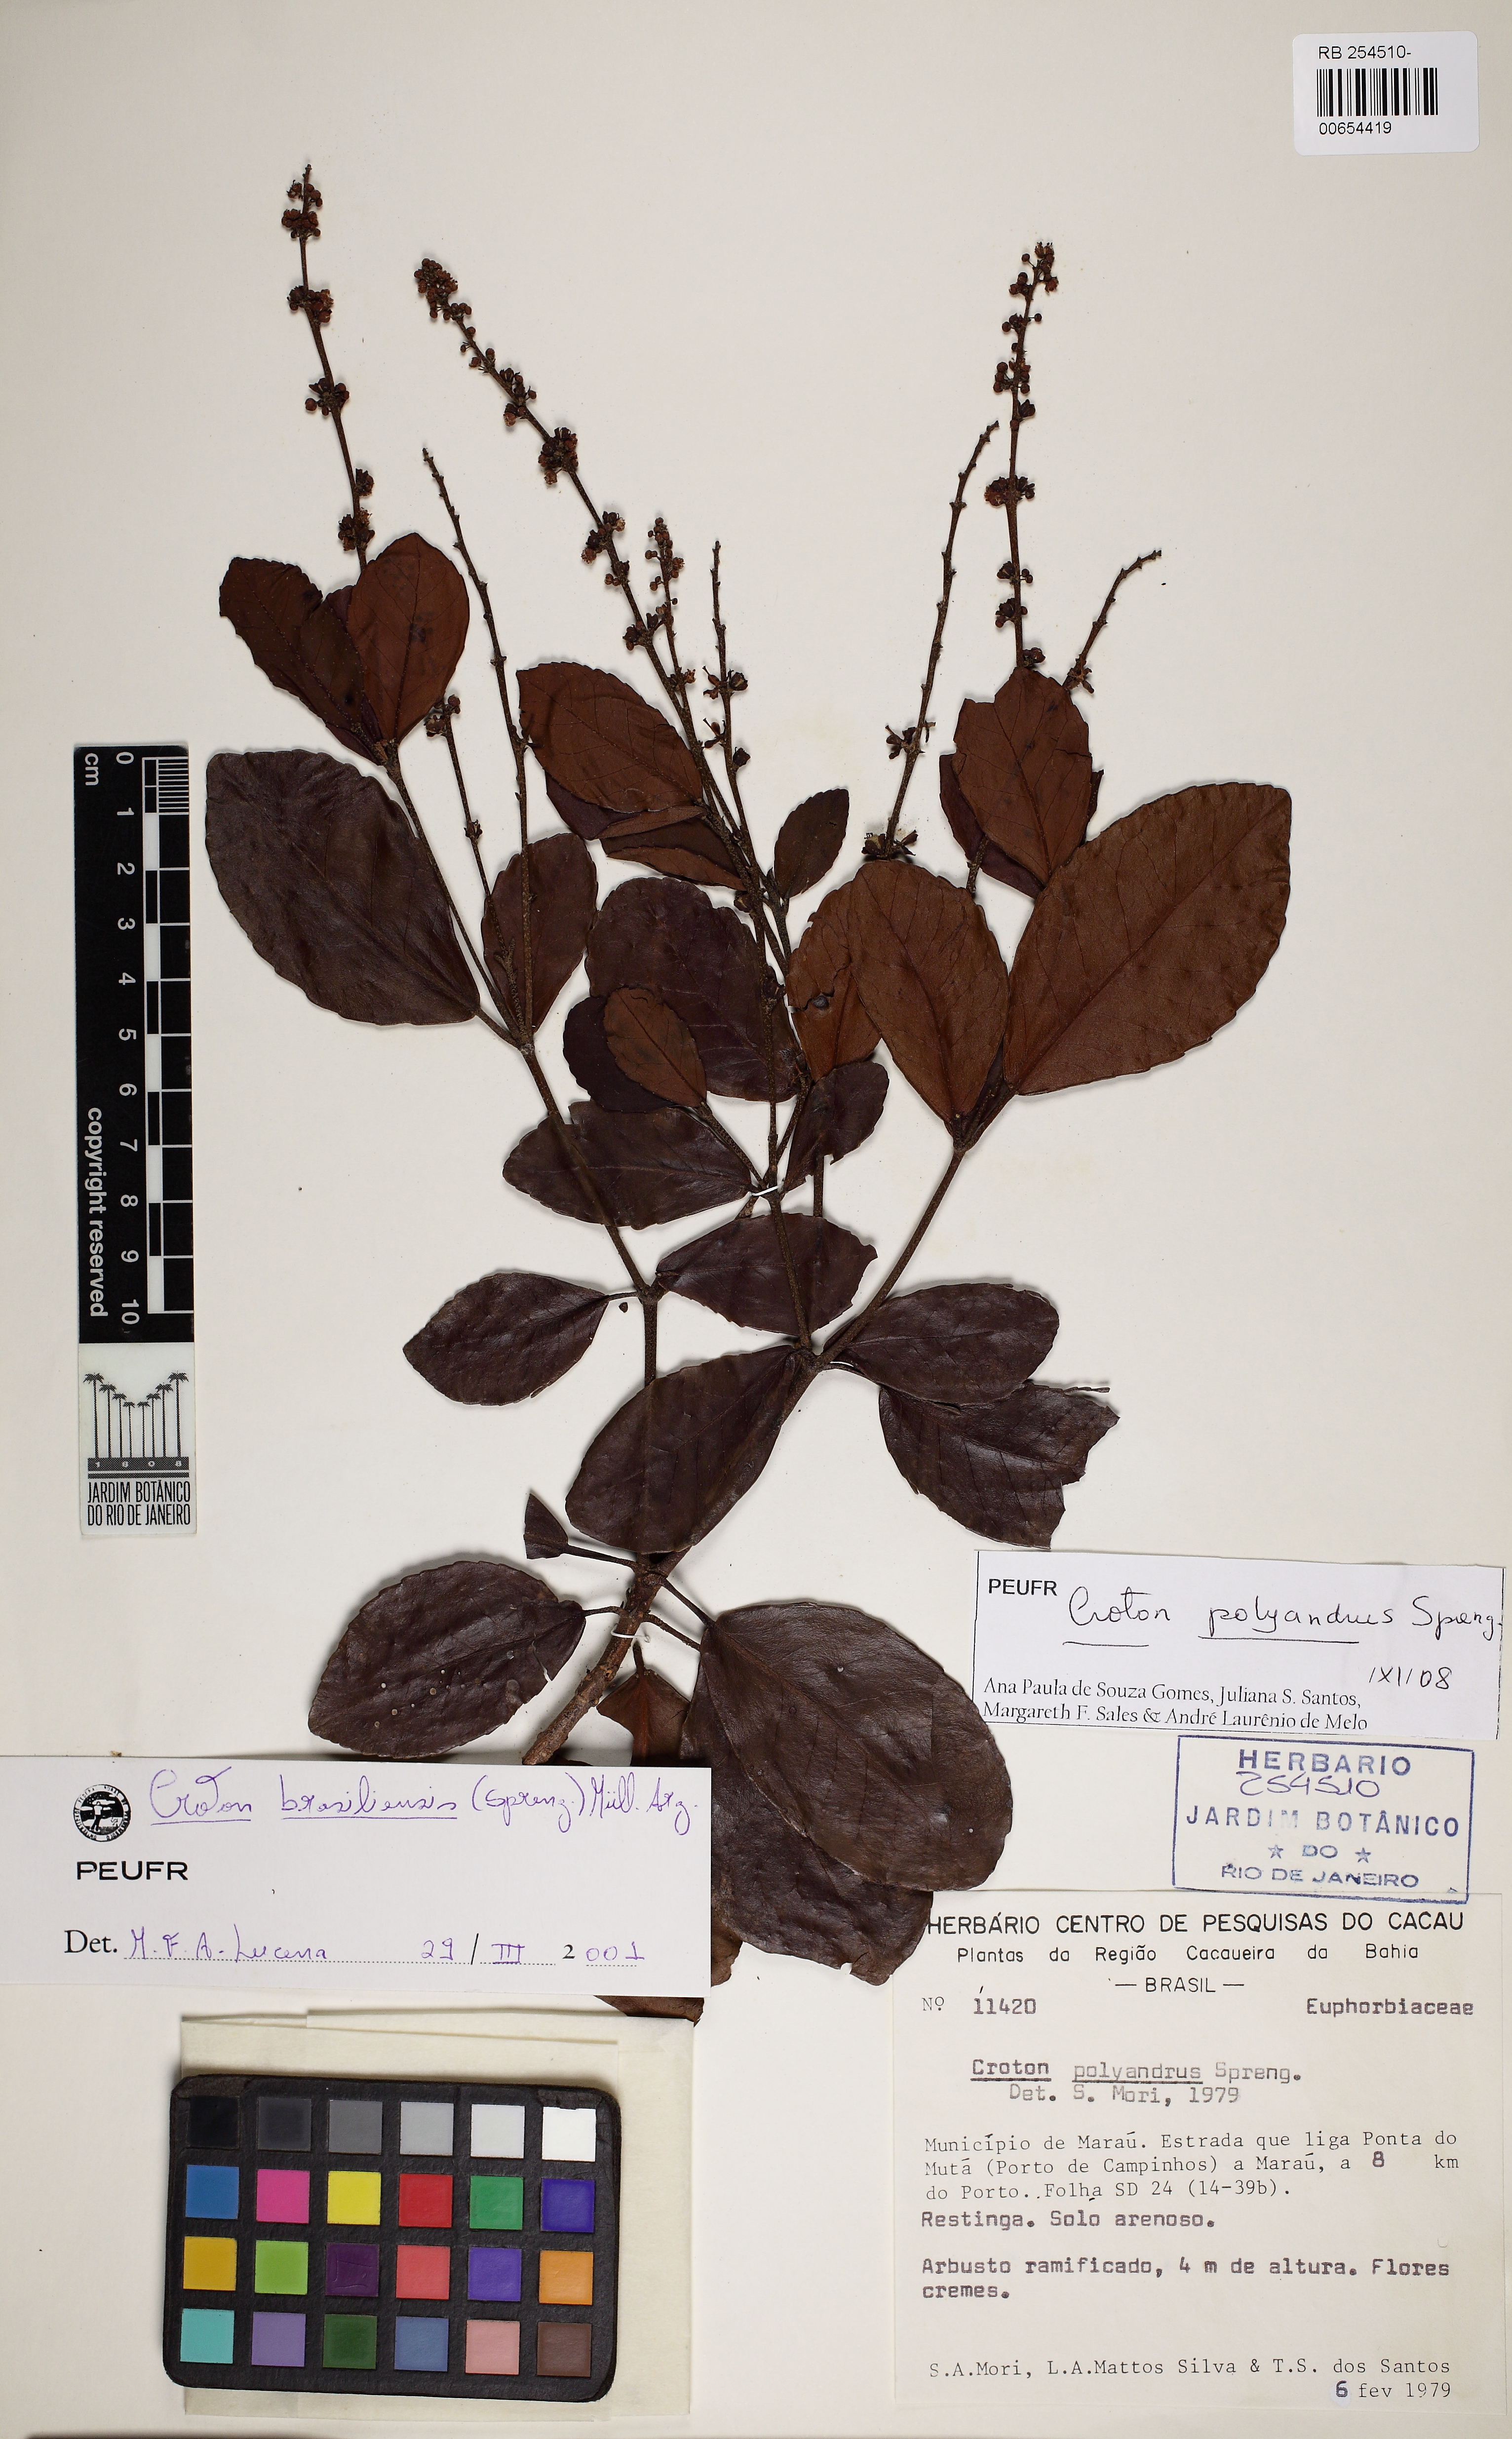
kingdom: Plantae
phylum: Tracheophyta
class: Magnoliopsida
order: Malpighiales
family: Euphorbiaceae
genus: Croton
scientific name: Croton polyandrus
